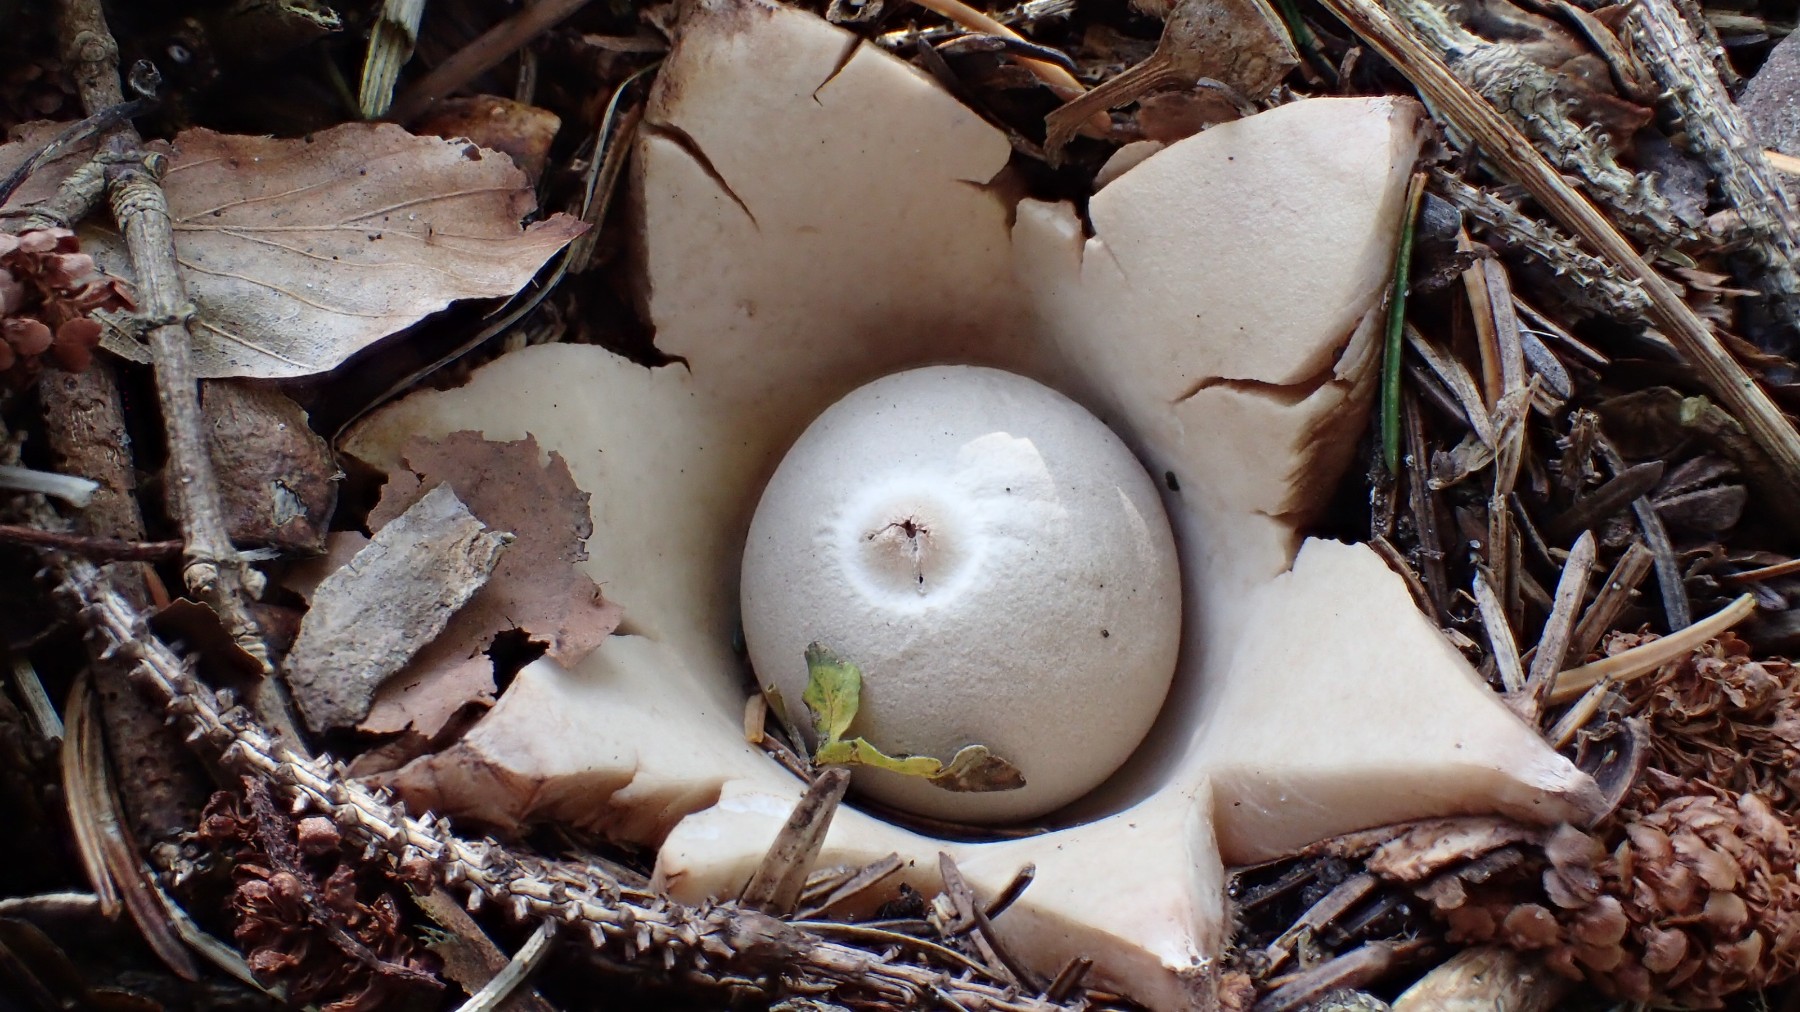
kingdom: Fungi
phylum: Basidiomycota
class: Agaricomycetes
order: Geastrales
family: Geastraceae
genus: Geastrum
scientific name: Geastrum michelianum
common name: kødet stjernebold
